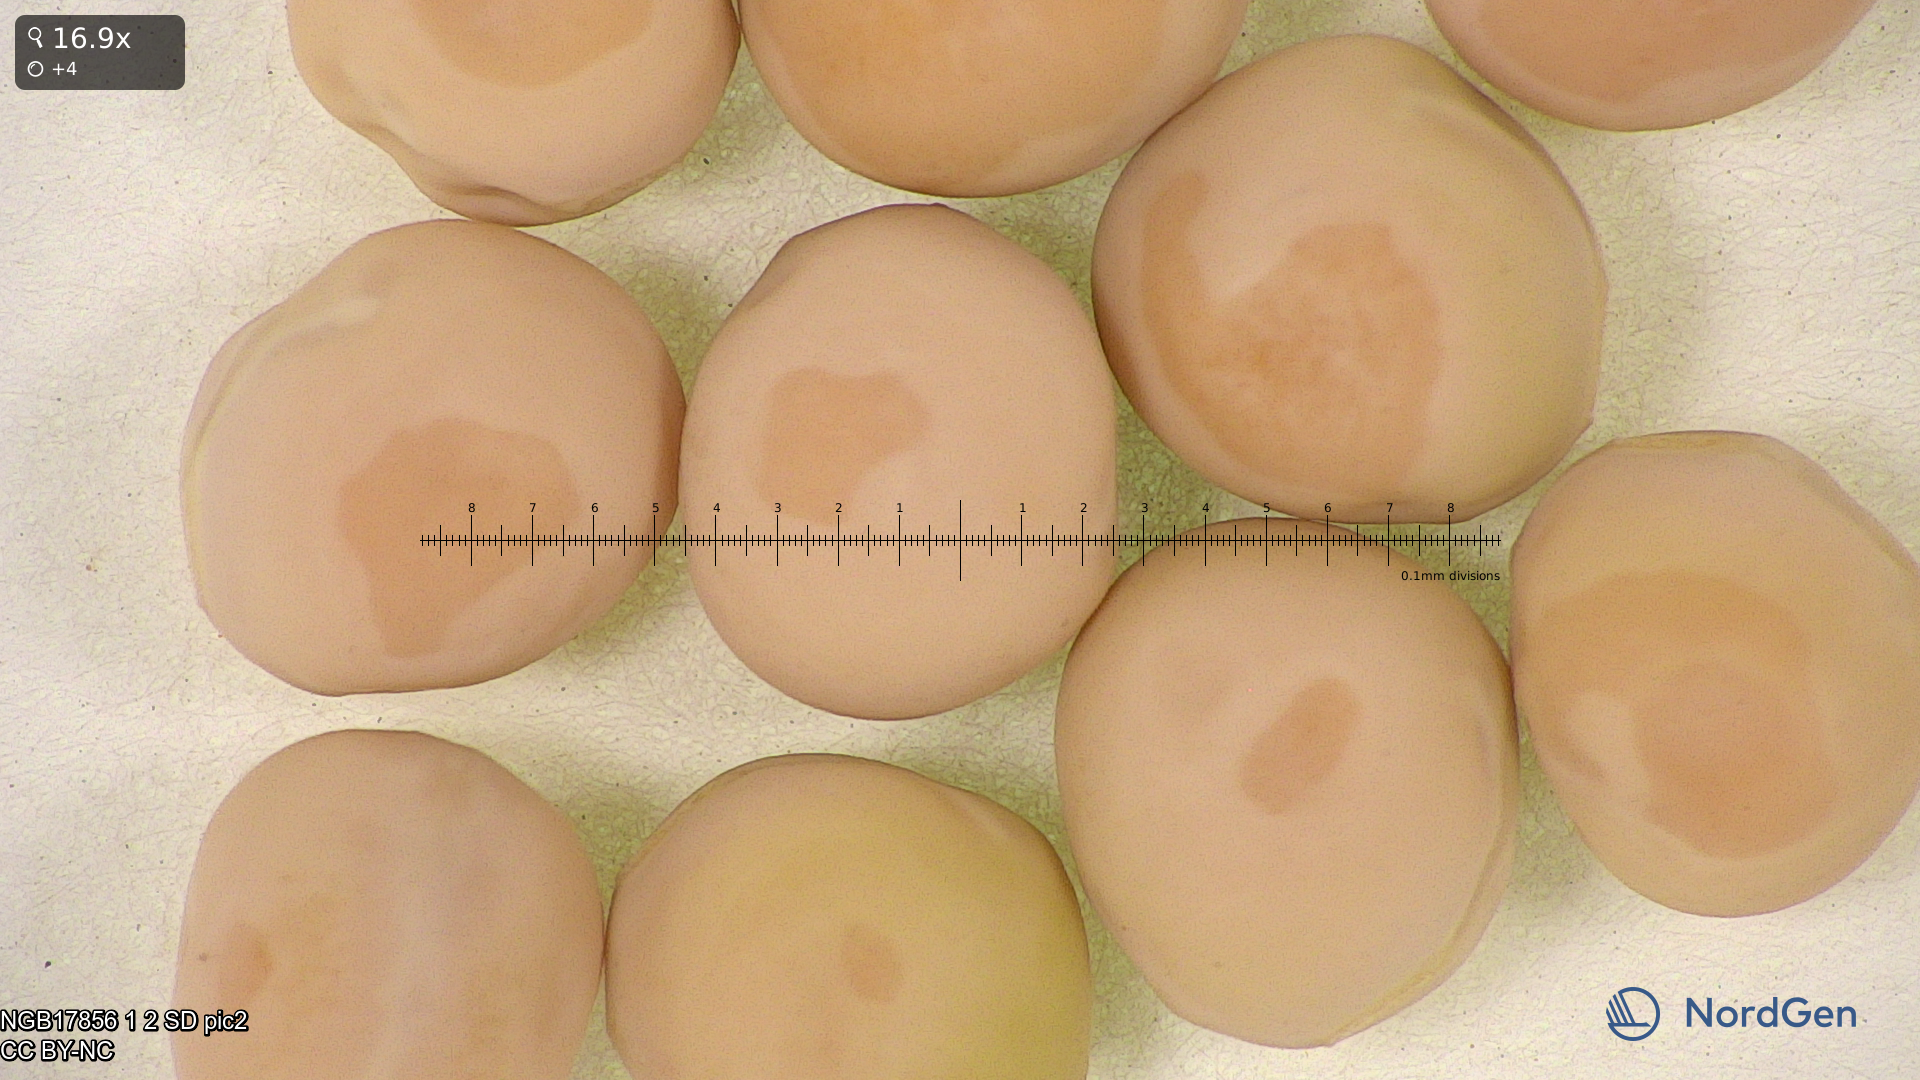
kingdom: Plantae
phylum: Tracheophyta
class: Magnoliopsida
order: Fabales
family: Fabaceae
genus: Lathyrus
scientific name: Lathyrus oleraceus
